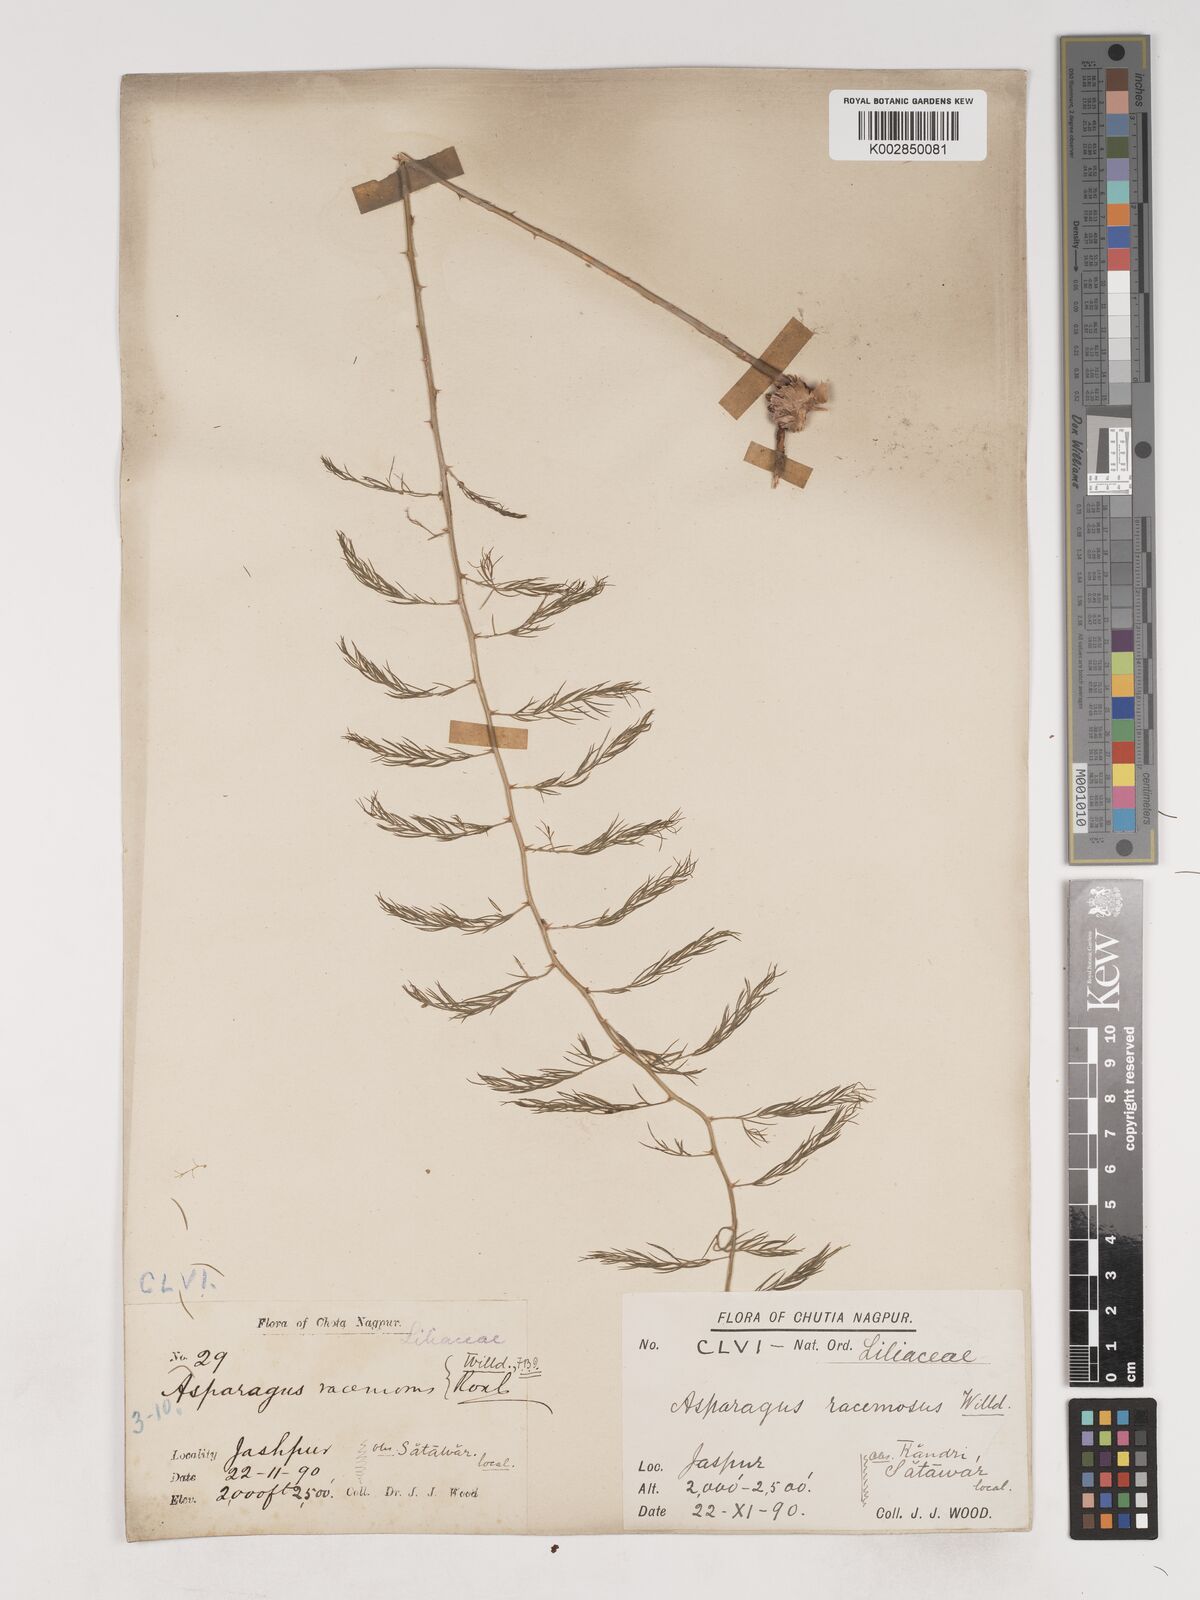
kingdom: Plantae
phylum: Tracheophyta
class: Liliopsida
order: Asparagales
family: Asparagaceae
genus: Asparagus
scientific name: Asparagus racemosus
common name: Asparagus-fern
